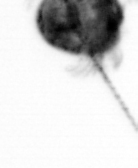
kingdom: Animalia
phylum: Arthropoda
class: Copepoda
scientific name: Copepoda
